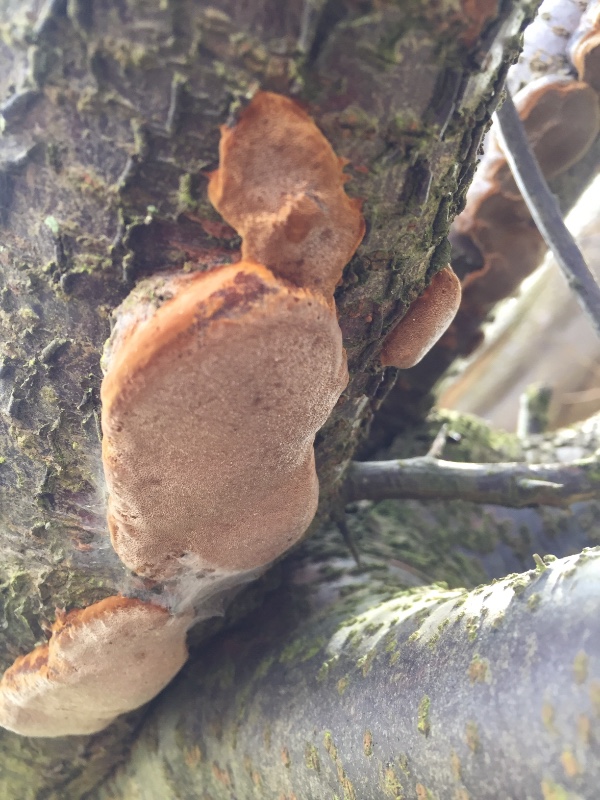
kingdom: Fungi
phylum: Basidiomycota
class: Agaricomycetes
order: Hymenochaetales
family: Hymenochaetaceae
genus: Phellinus
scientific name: Phellinus pomaceus
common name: blomme-ildporesvamp
